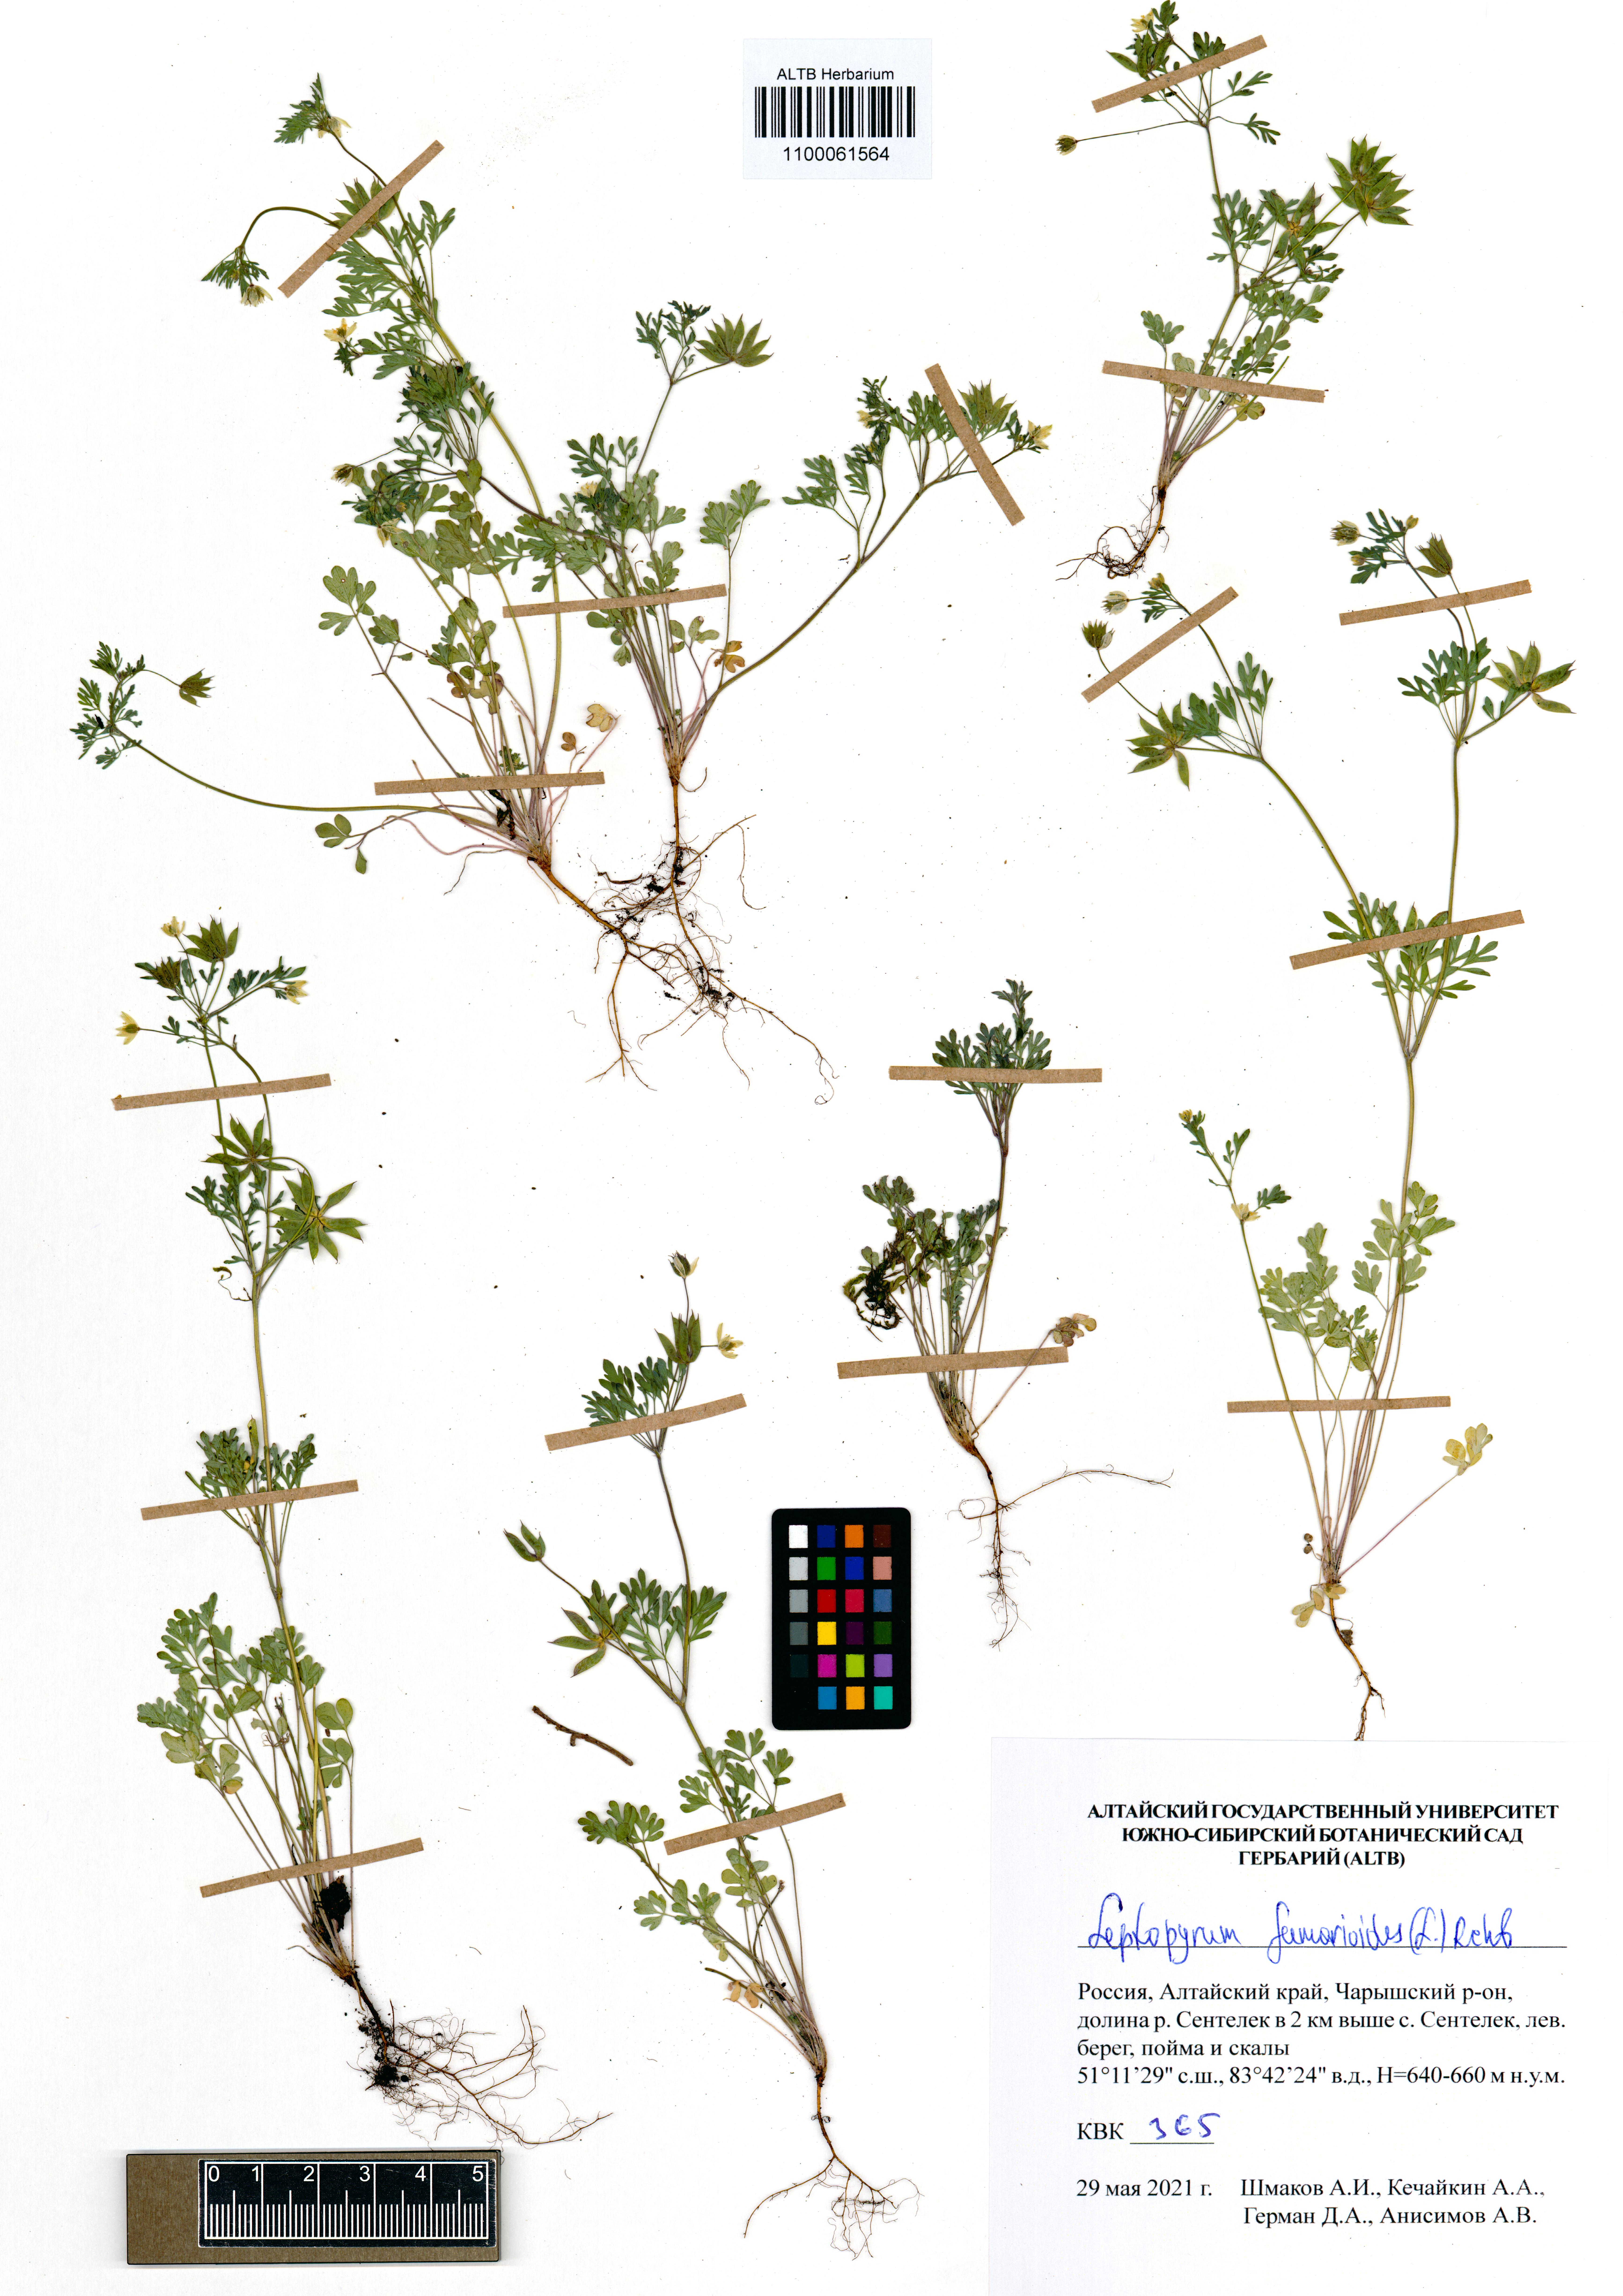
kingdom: Plantae
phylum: Tracheophyta
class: Magnoliopsida
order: Ranunculales
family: Ranunculaceae
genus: Leptopyrum
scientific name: Leptopyrum fumarioides
